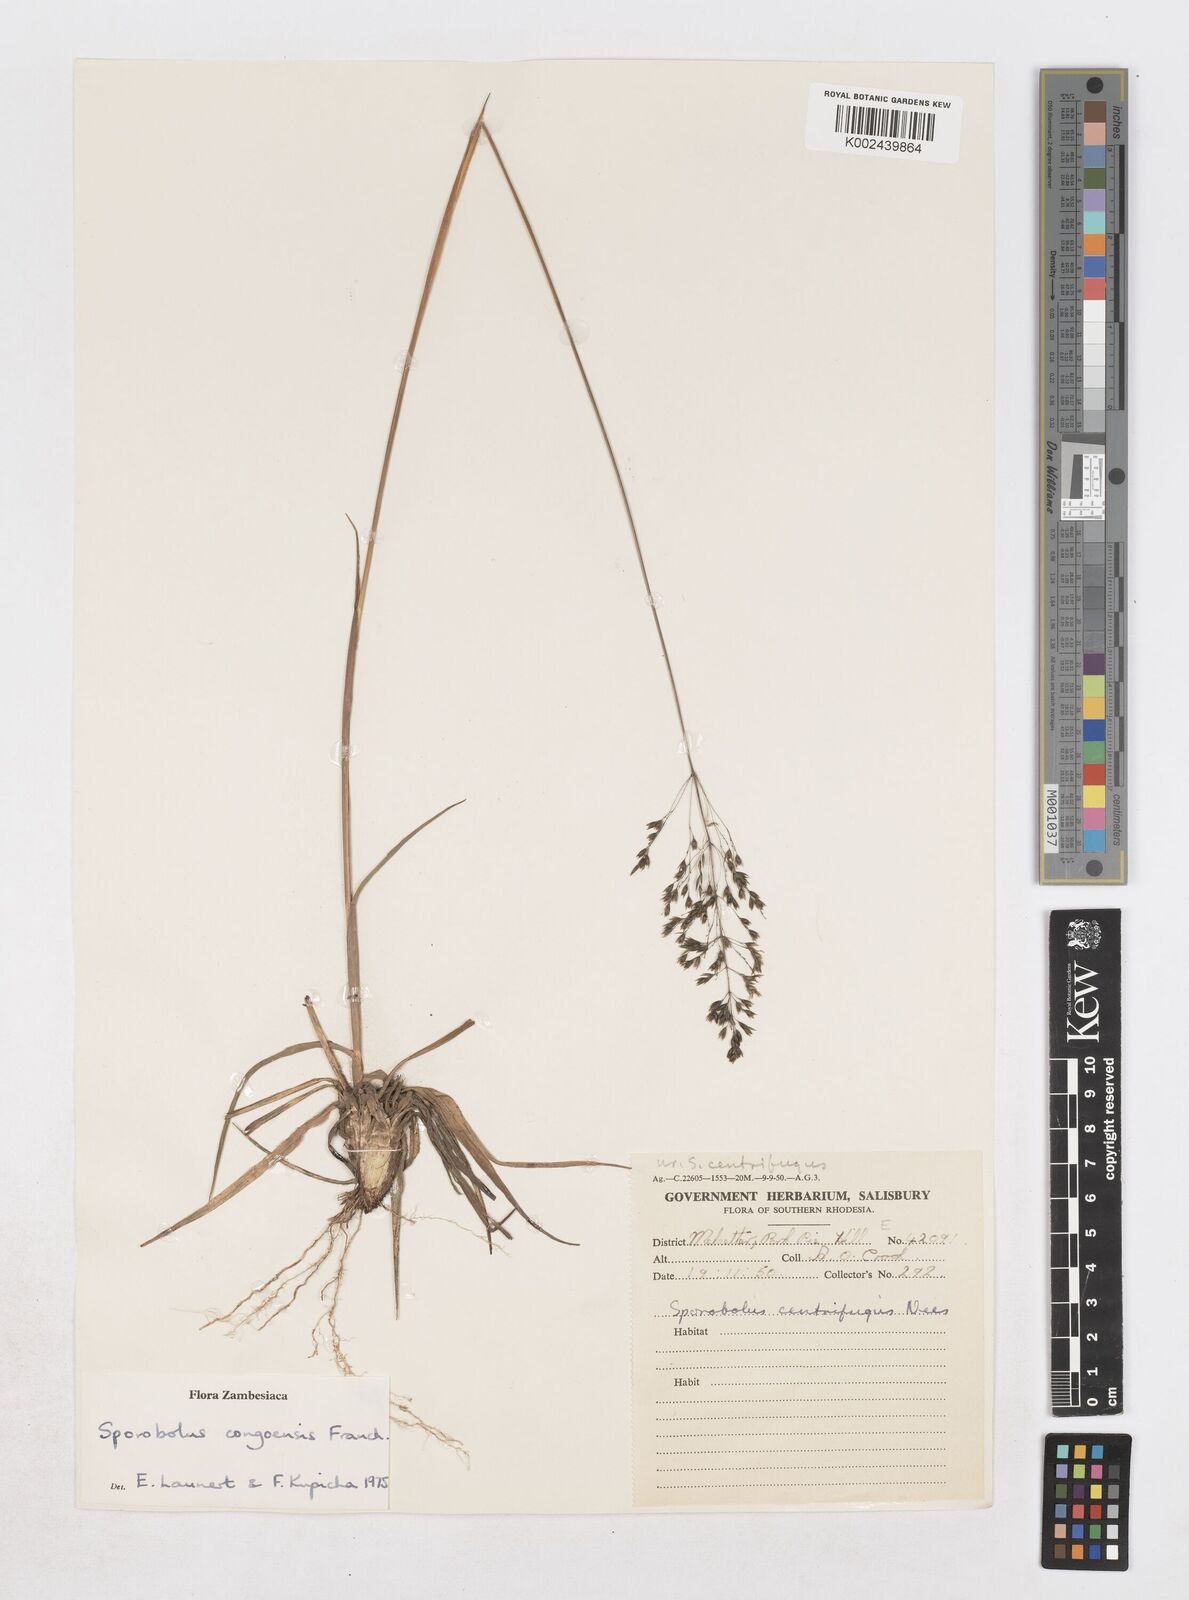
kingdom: Plantae
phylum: Tracheophyta
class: Liliopsida
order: Poales
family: Poaceae
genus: Sporobolus
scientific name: Sporobolus congoensis
